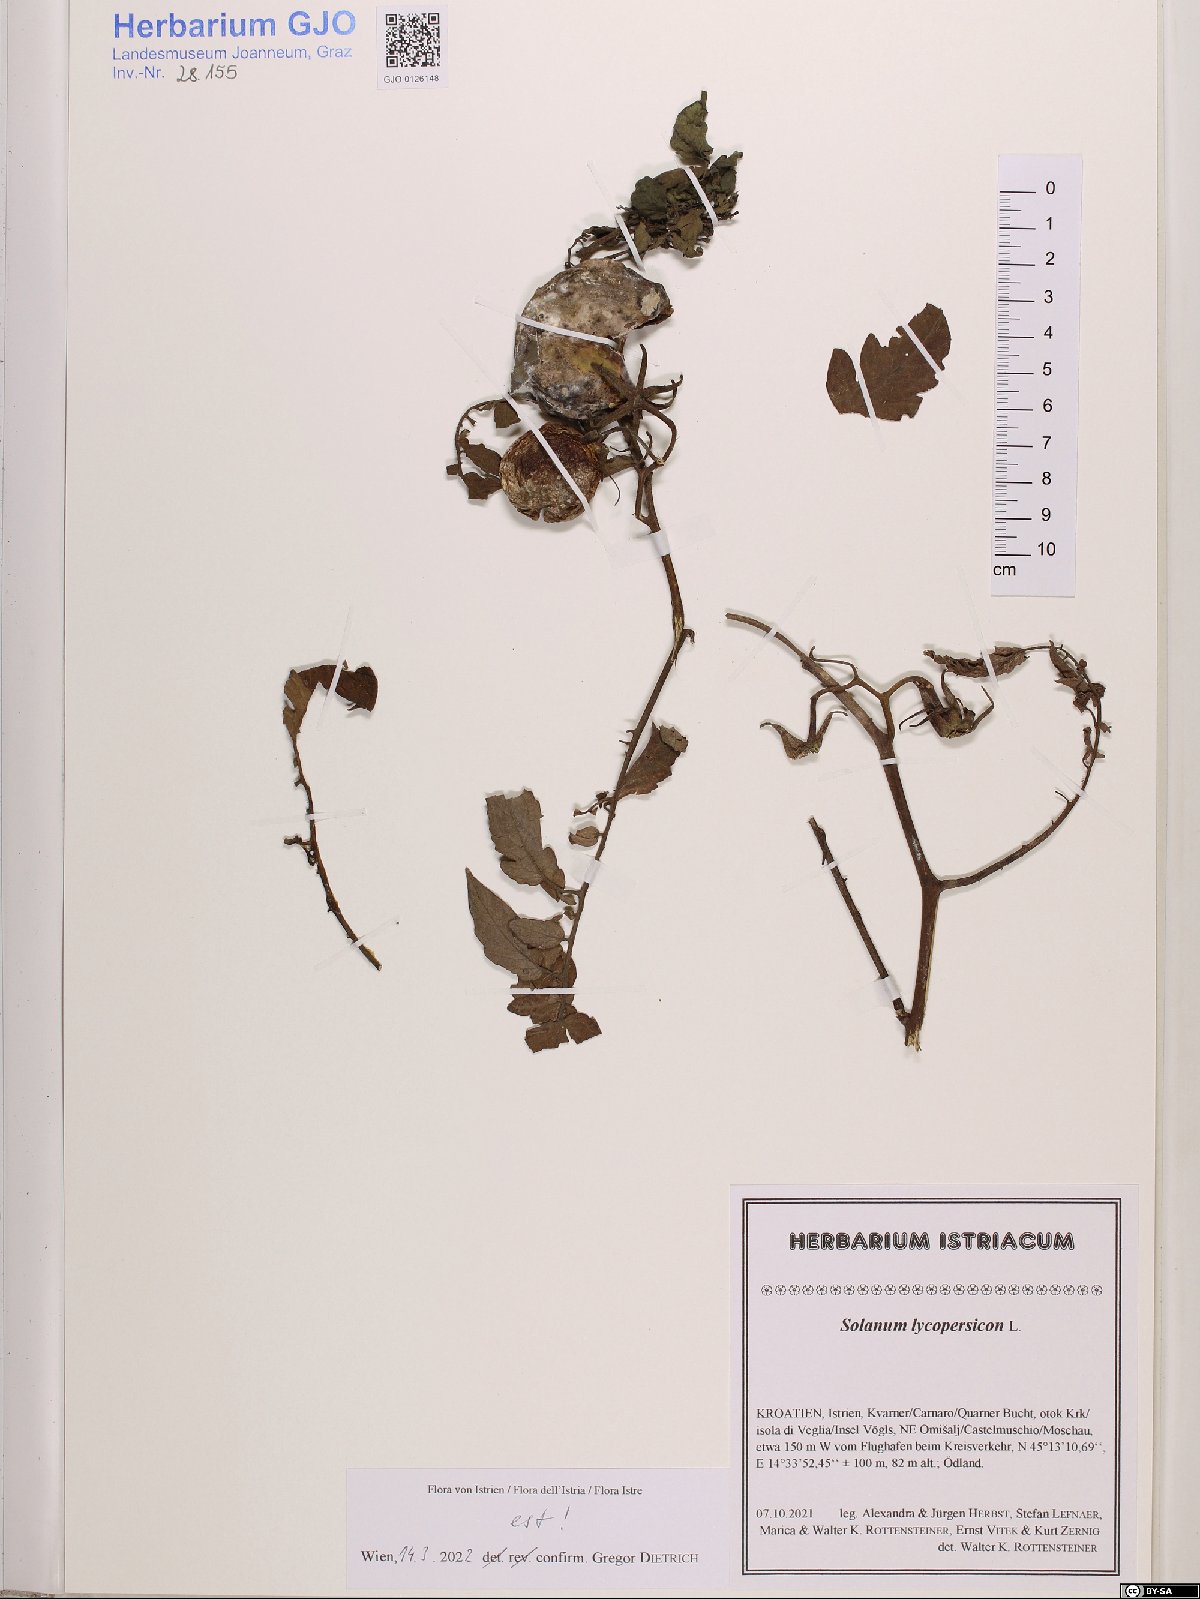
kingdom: Plantae
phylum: Tracheophyta
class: Magnoliopsida
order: Solanales
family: Solanaceae
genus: Solanum
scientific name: Solanum lycopersicum
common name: Garden tomato
